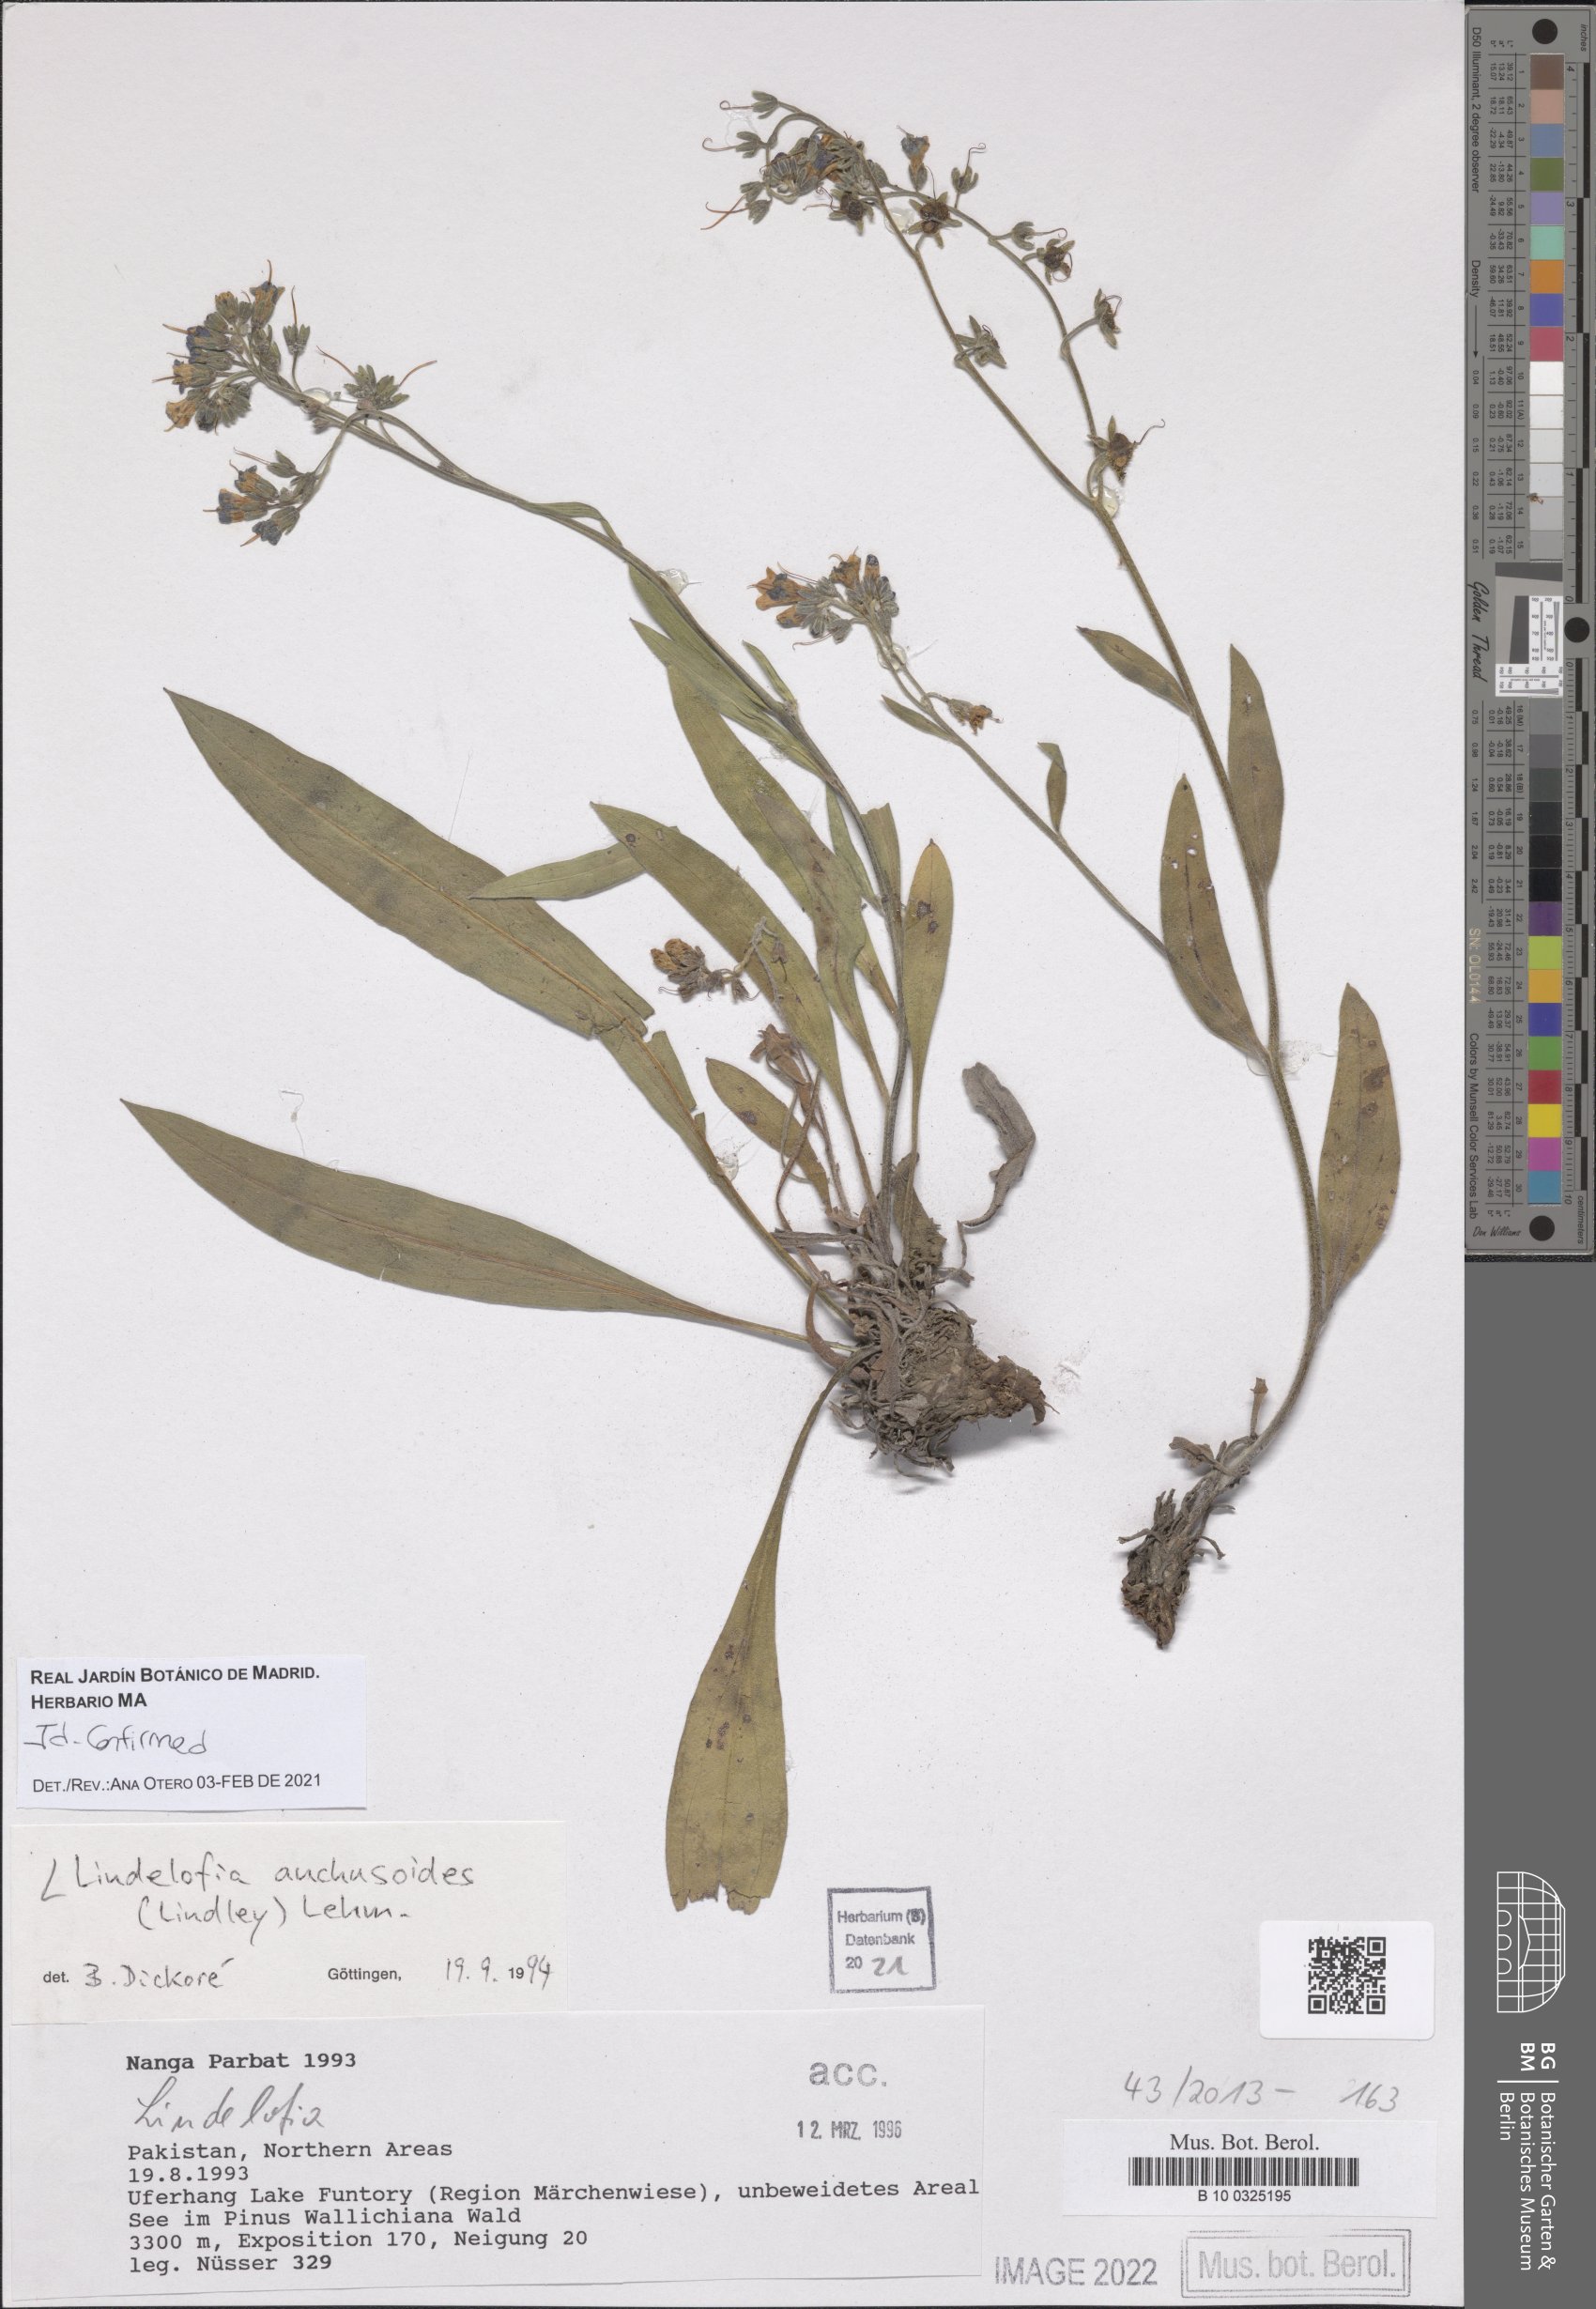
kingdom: Plantae
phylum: Tracheophyta
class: Magnoliopsida
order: Boraginales
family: Boraginaceae
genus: Lindelofia
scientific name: Lindelofia anchusoides
